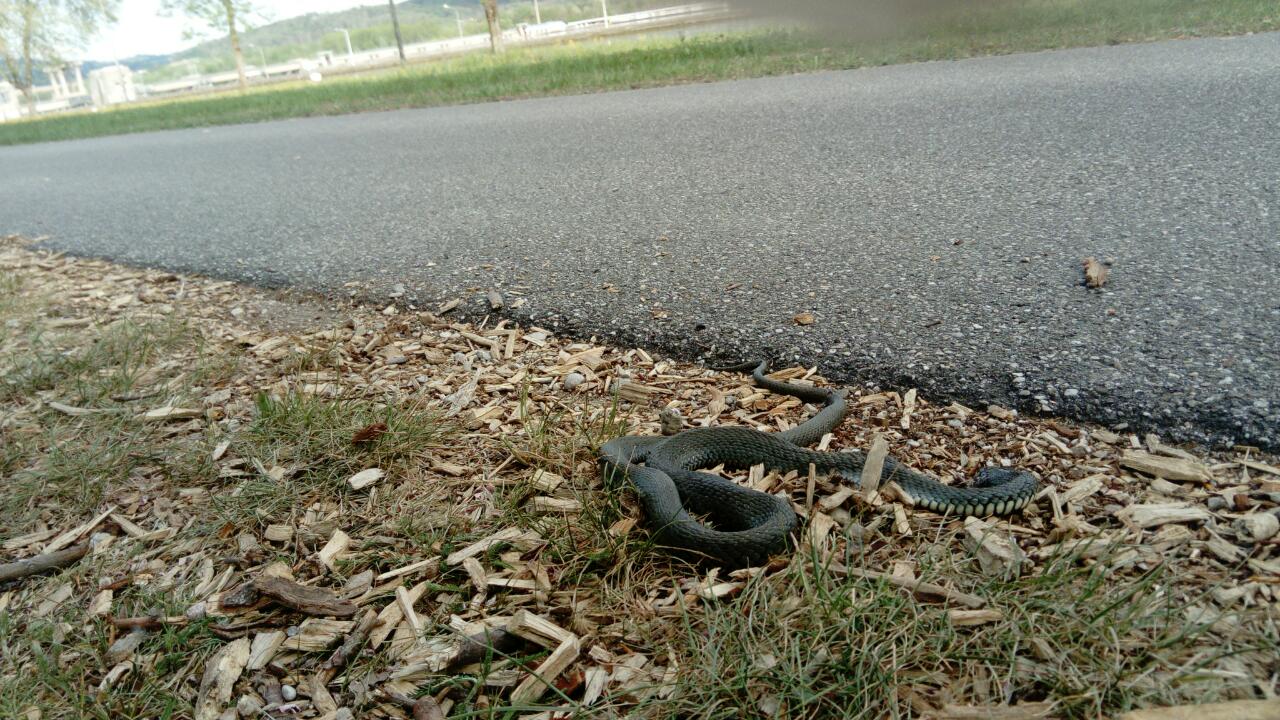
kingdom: Animalia
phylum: Chordata
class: Squamata
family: Colubridae
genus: Natrix
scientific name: Natrix natrix
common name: Grass snake
